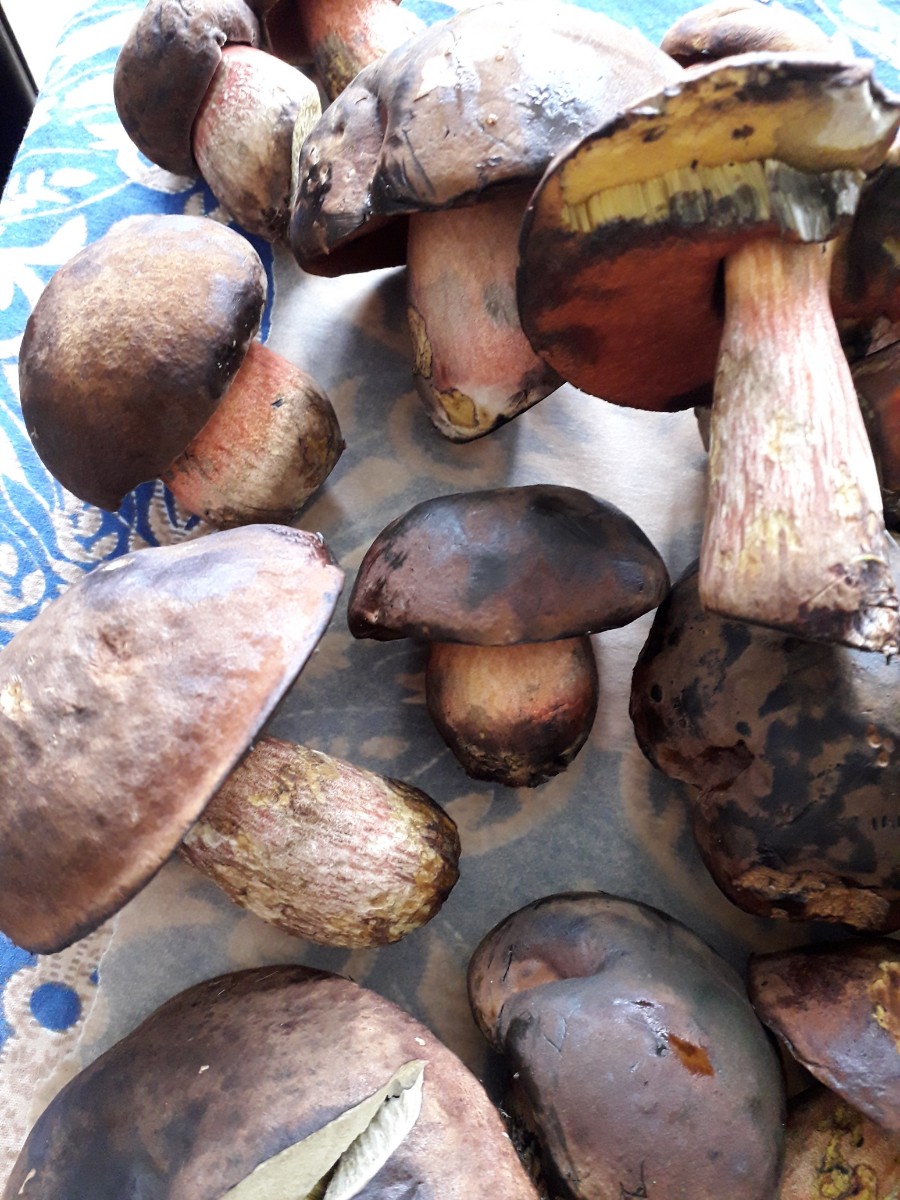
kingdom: Fungi
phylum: Basidiomycota
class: Agaricomycetes
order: Boletales
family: Boletaceae
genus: Neoboletus
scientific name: Neoboletus erythropus
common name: punktstokket indigorørhat
